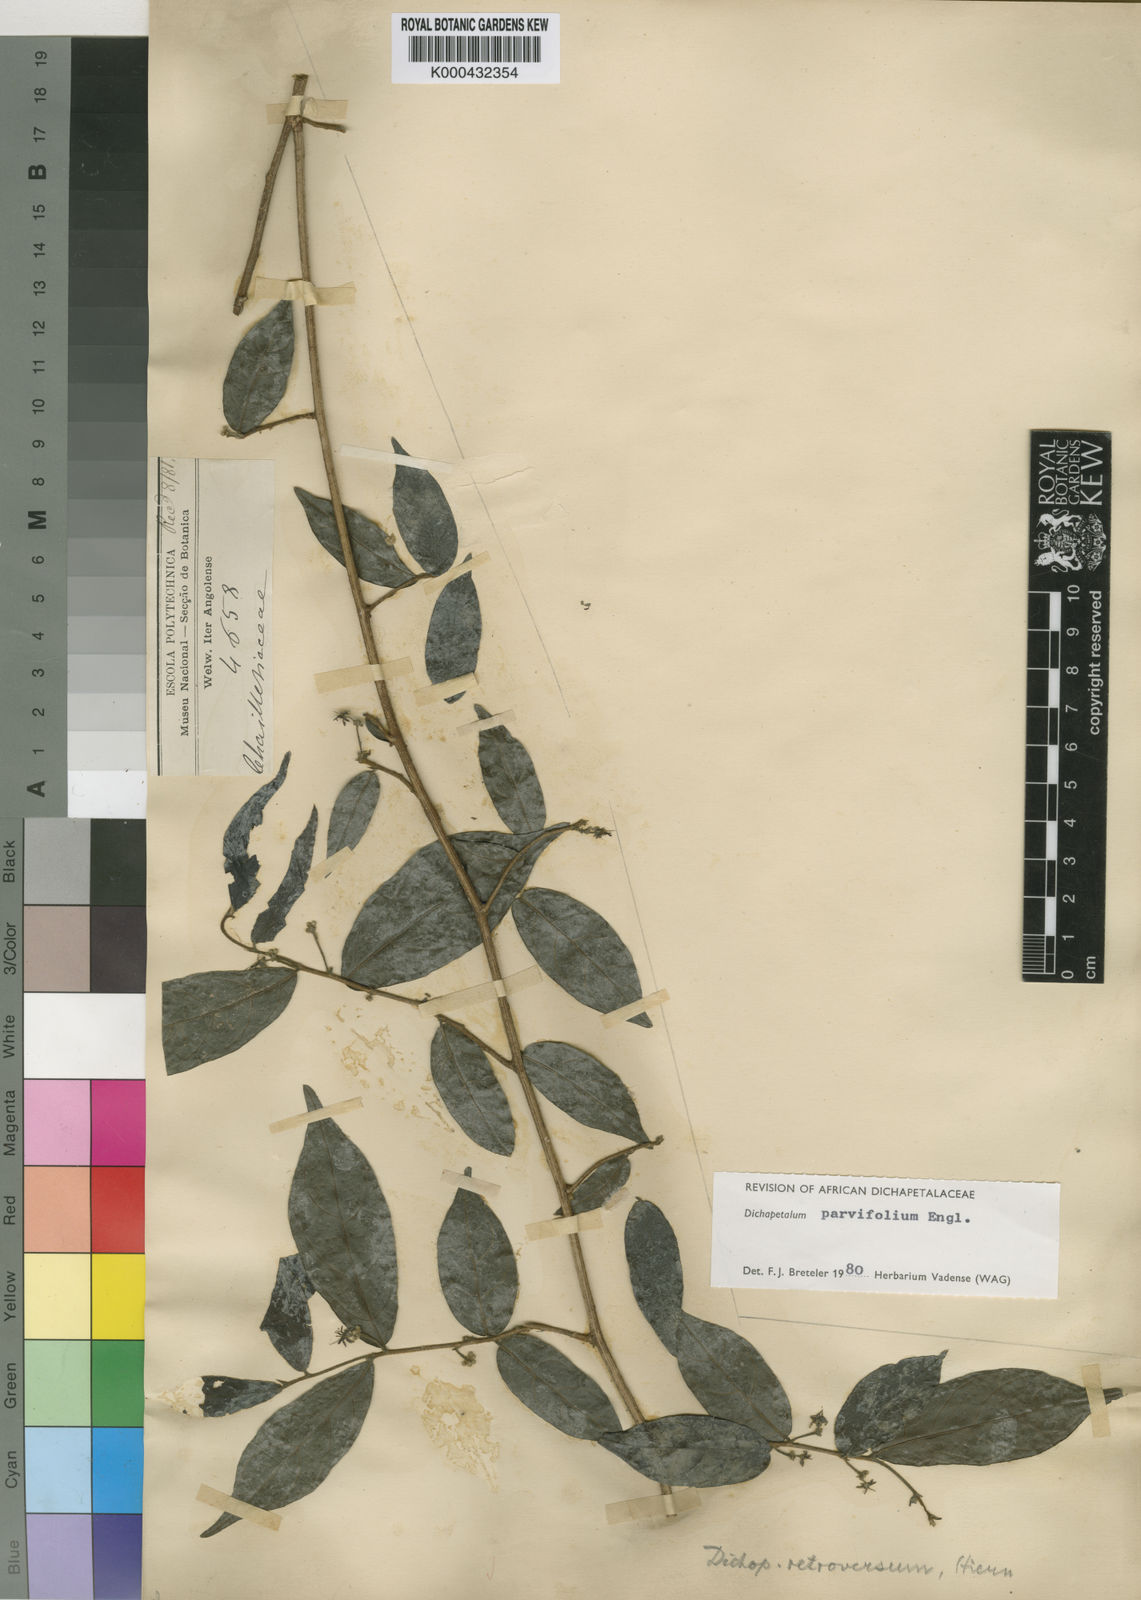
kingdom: Plantae
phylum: Tracheophyta
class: Magnoliopsida
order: Malpighiales
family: Dichapetalaceae
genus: Dichapetalum
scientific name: Dichapetalum parvifolium
